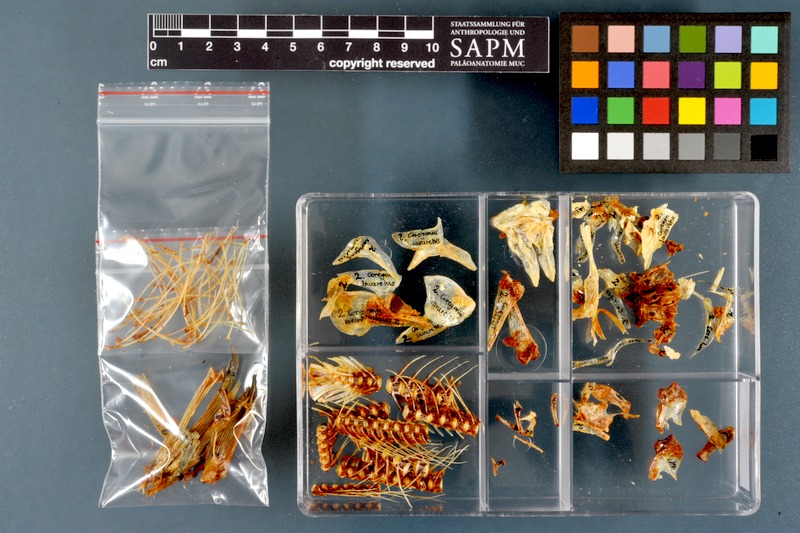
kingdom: Animalia
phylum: Chordata
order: Salmoniformes
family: Salmonidae
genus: Coregonus
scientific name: Coregonus lavaretus
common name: Schelly
